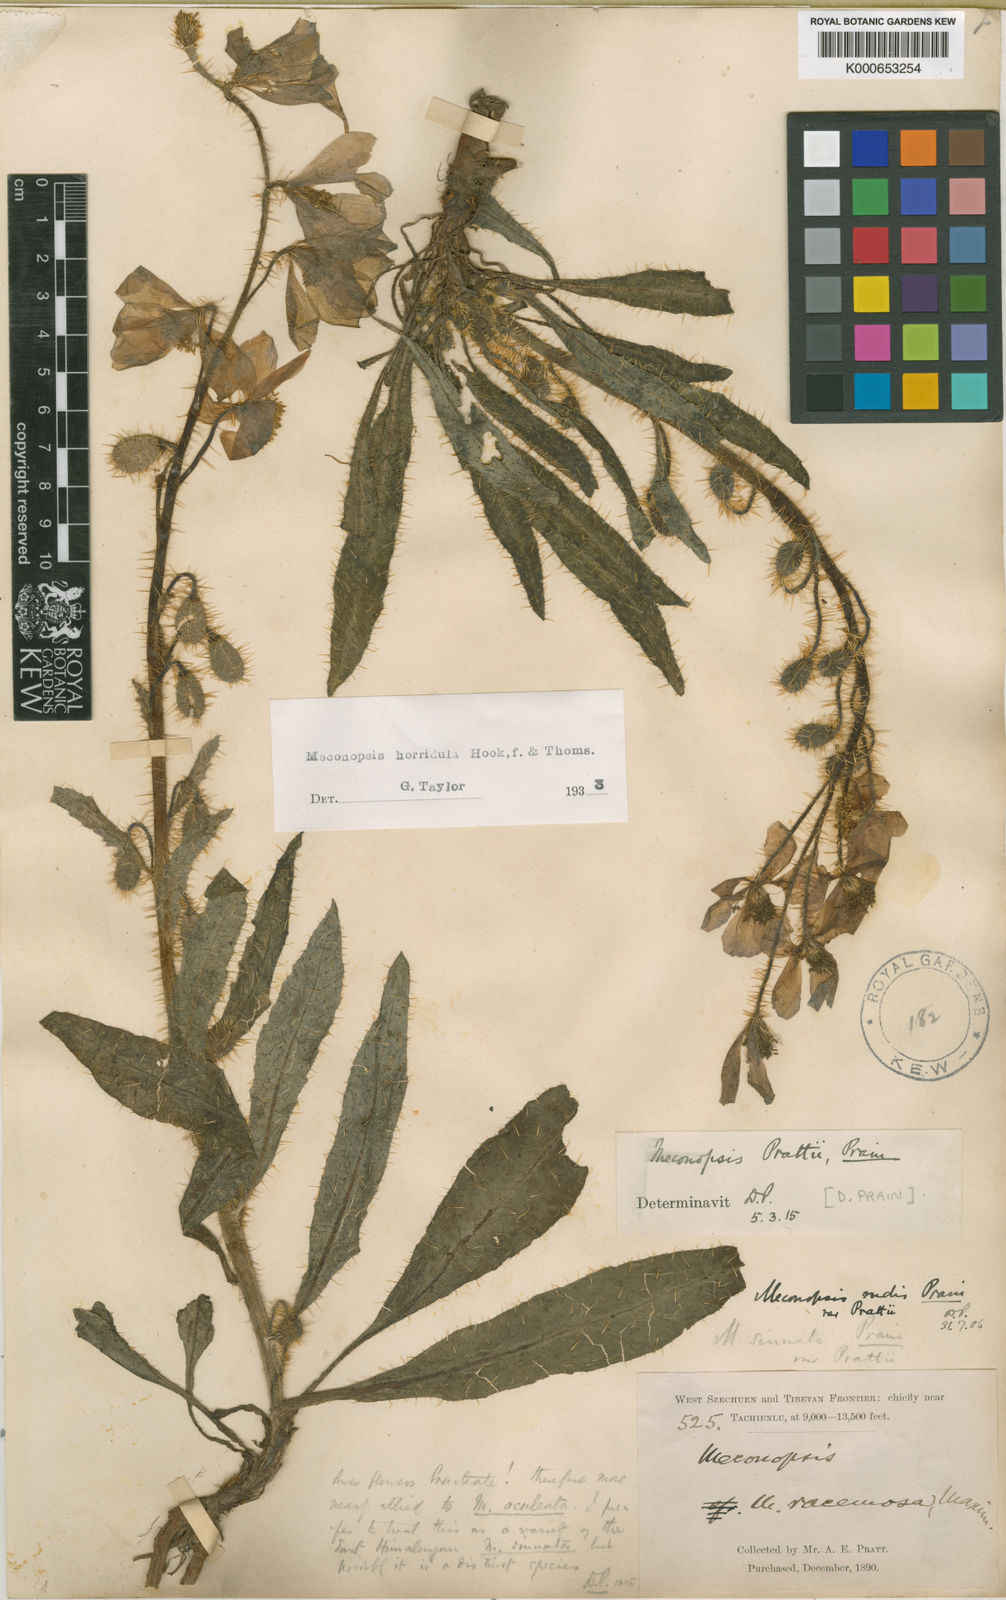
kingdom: Plantae
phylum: Tracheophyta
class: Magnoliopsida
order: Ranunculales
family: Papaveraceae
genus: Meconopsis
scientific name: Meconopsis horridula
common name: Prickly blue-poppy
